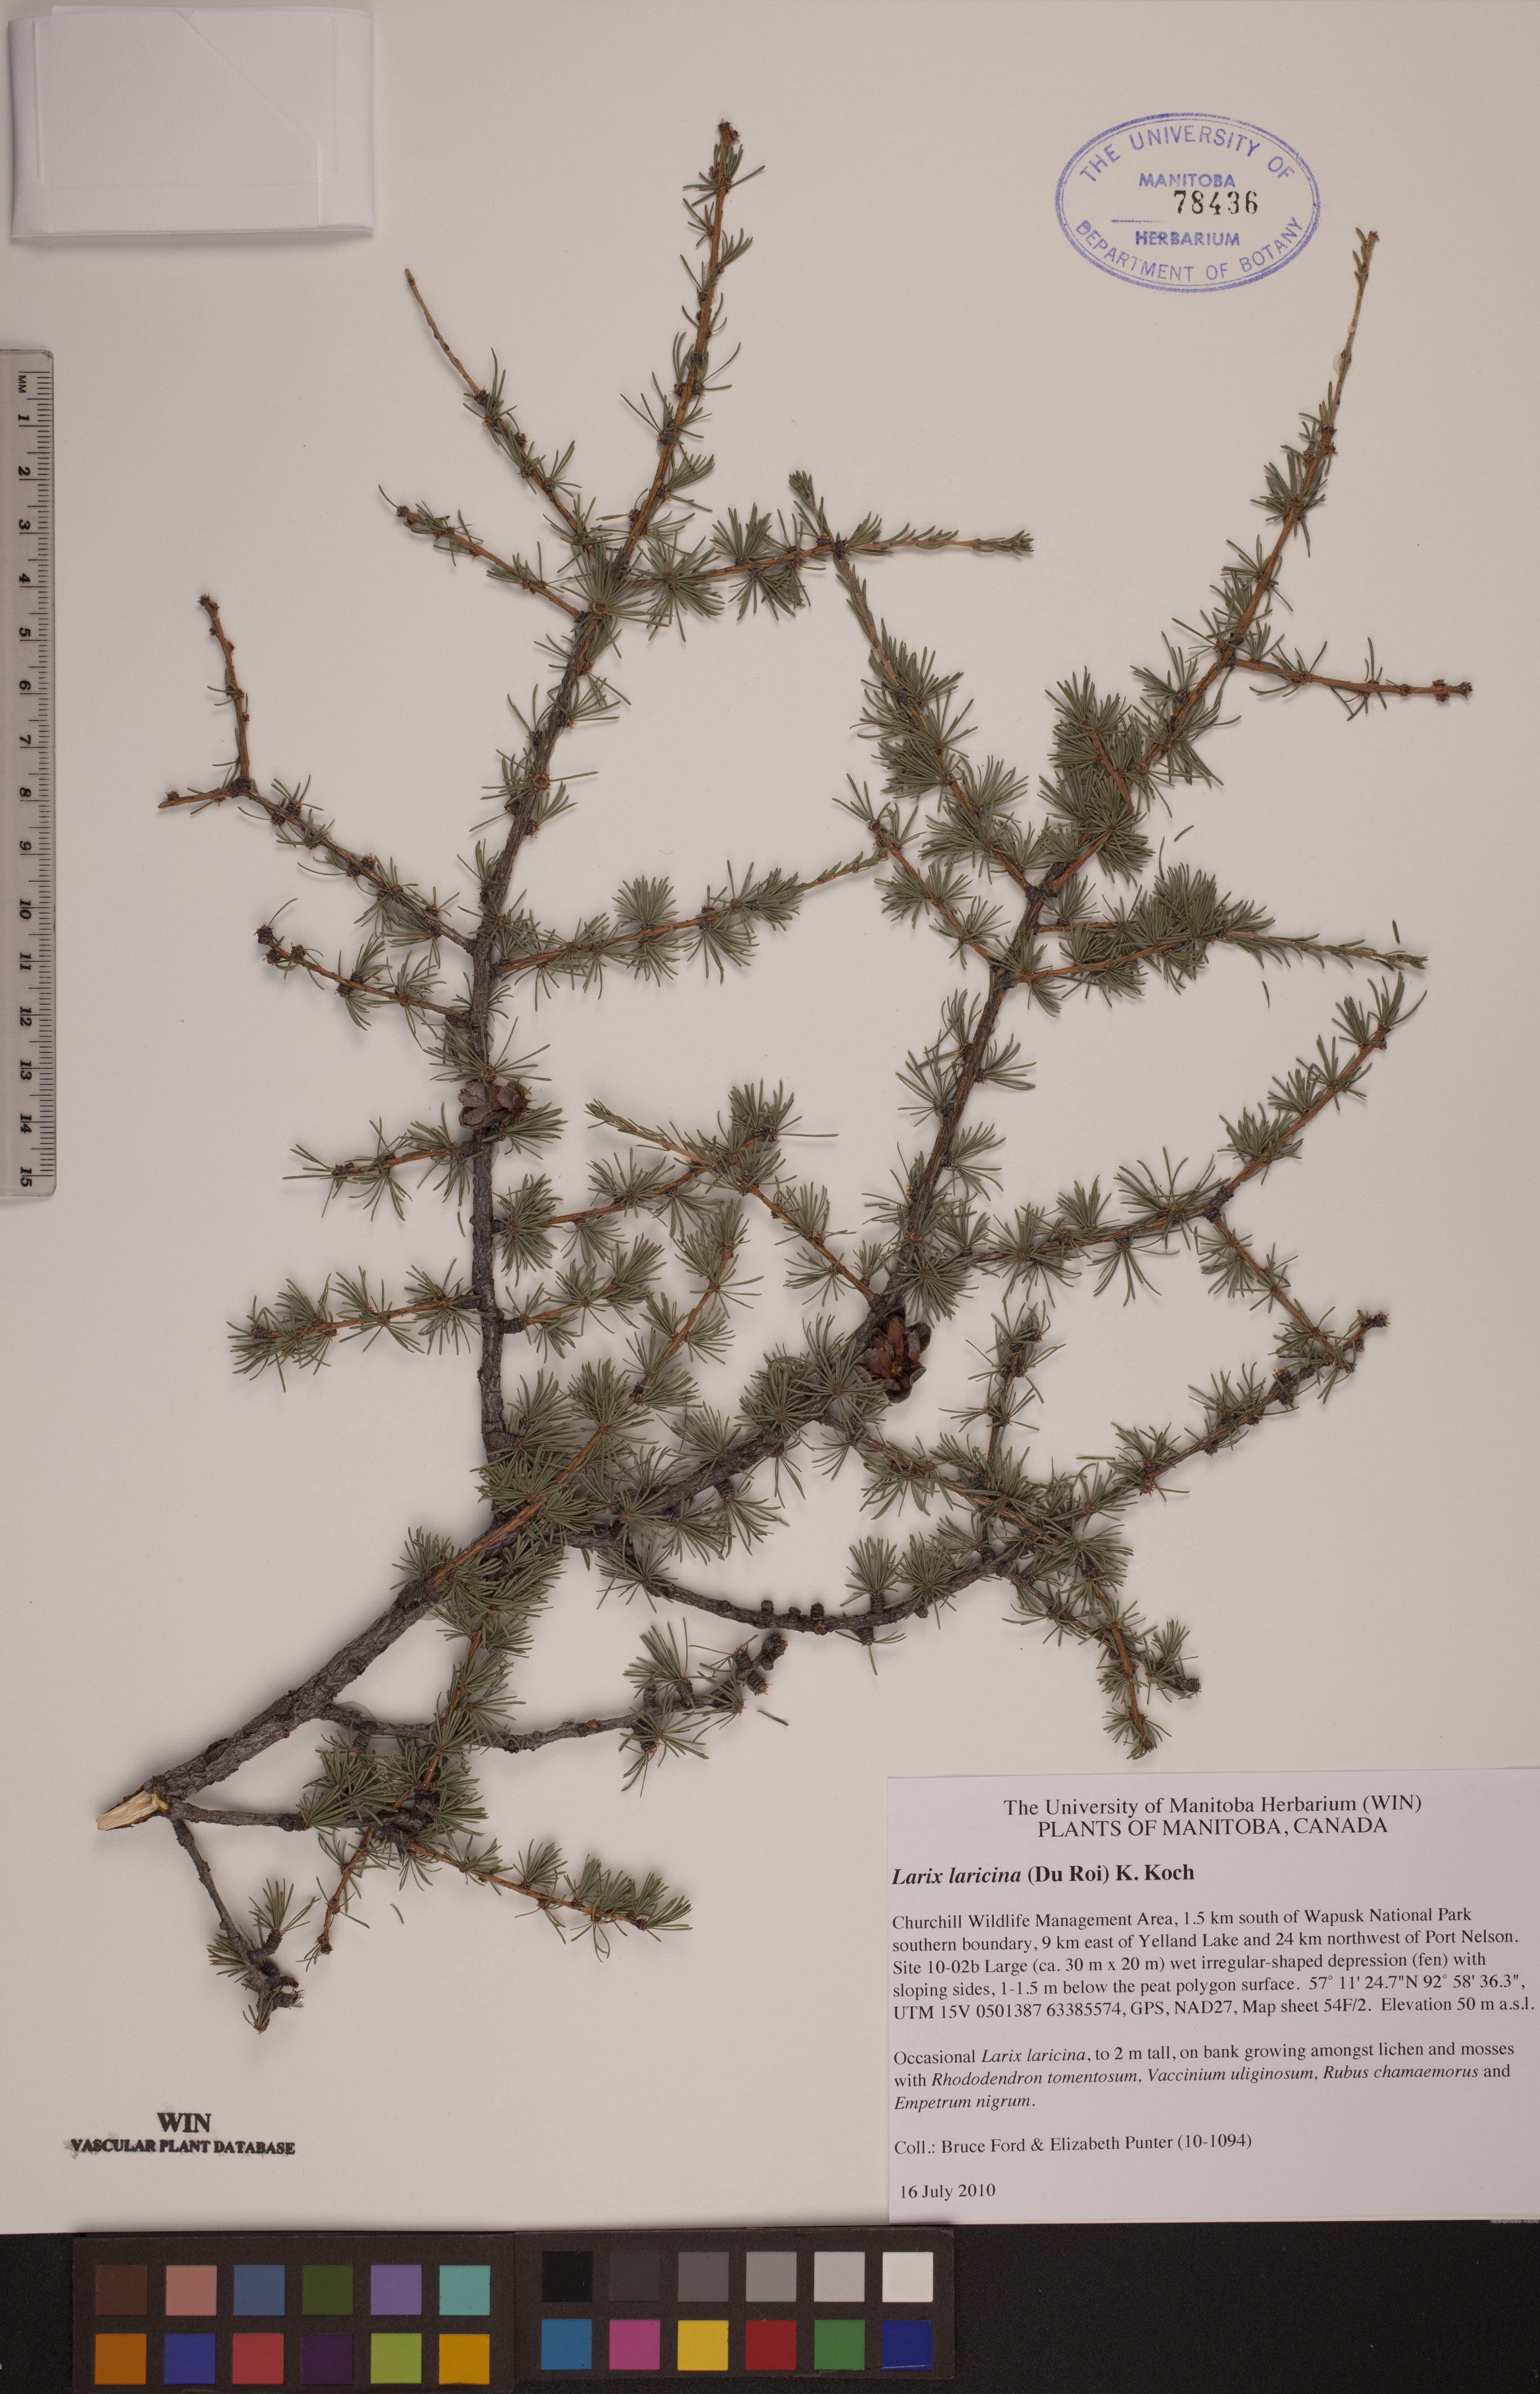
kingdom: Plantae
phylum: Tracheophyta
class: Pinopsida
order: Pinales
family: Pinaceae
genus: Larix
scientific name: Larix laricina
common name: American larch
